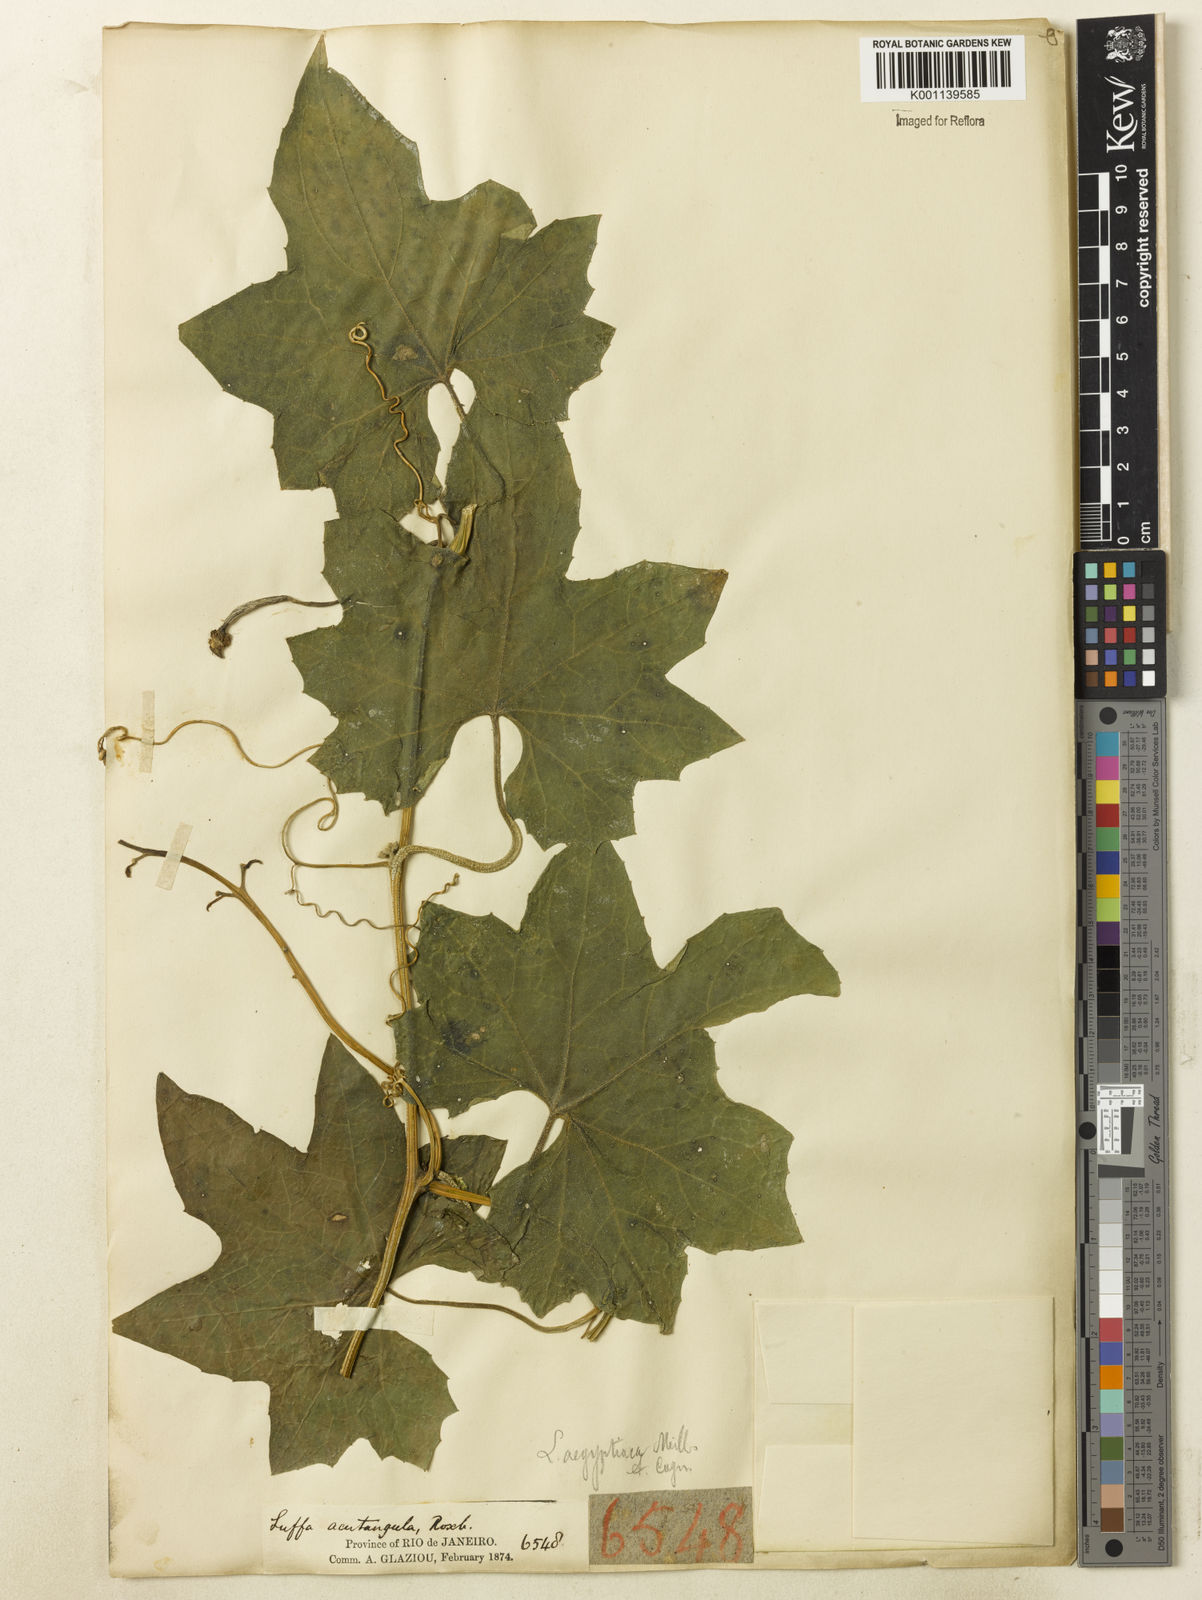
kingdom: Plantae
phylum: Tracheophyta
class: Magnoliopsida
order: Cucurbitales
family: Cucurbitaceae
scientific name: Cucurbitaceae
